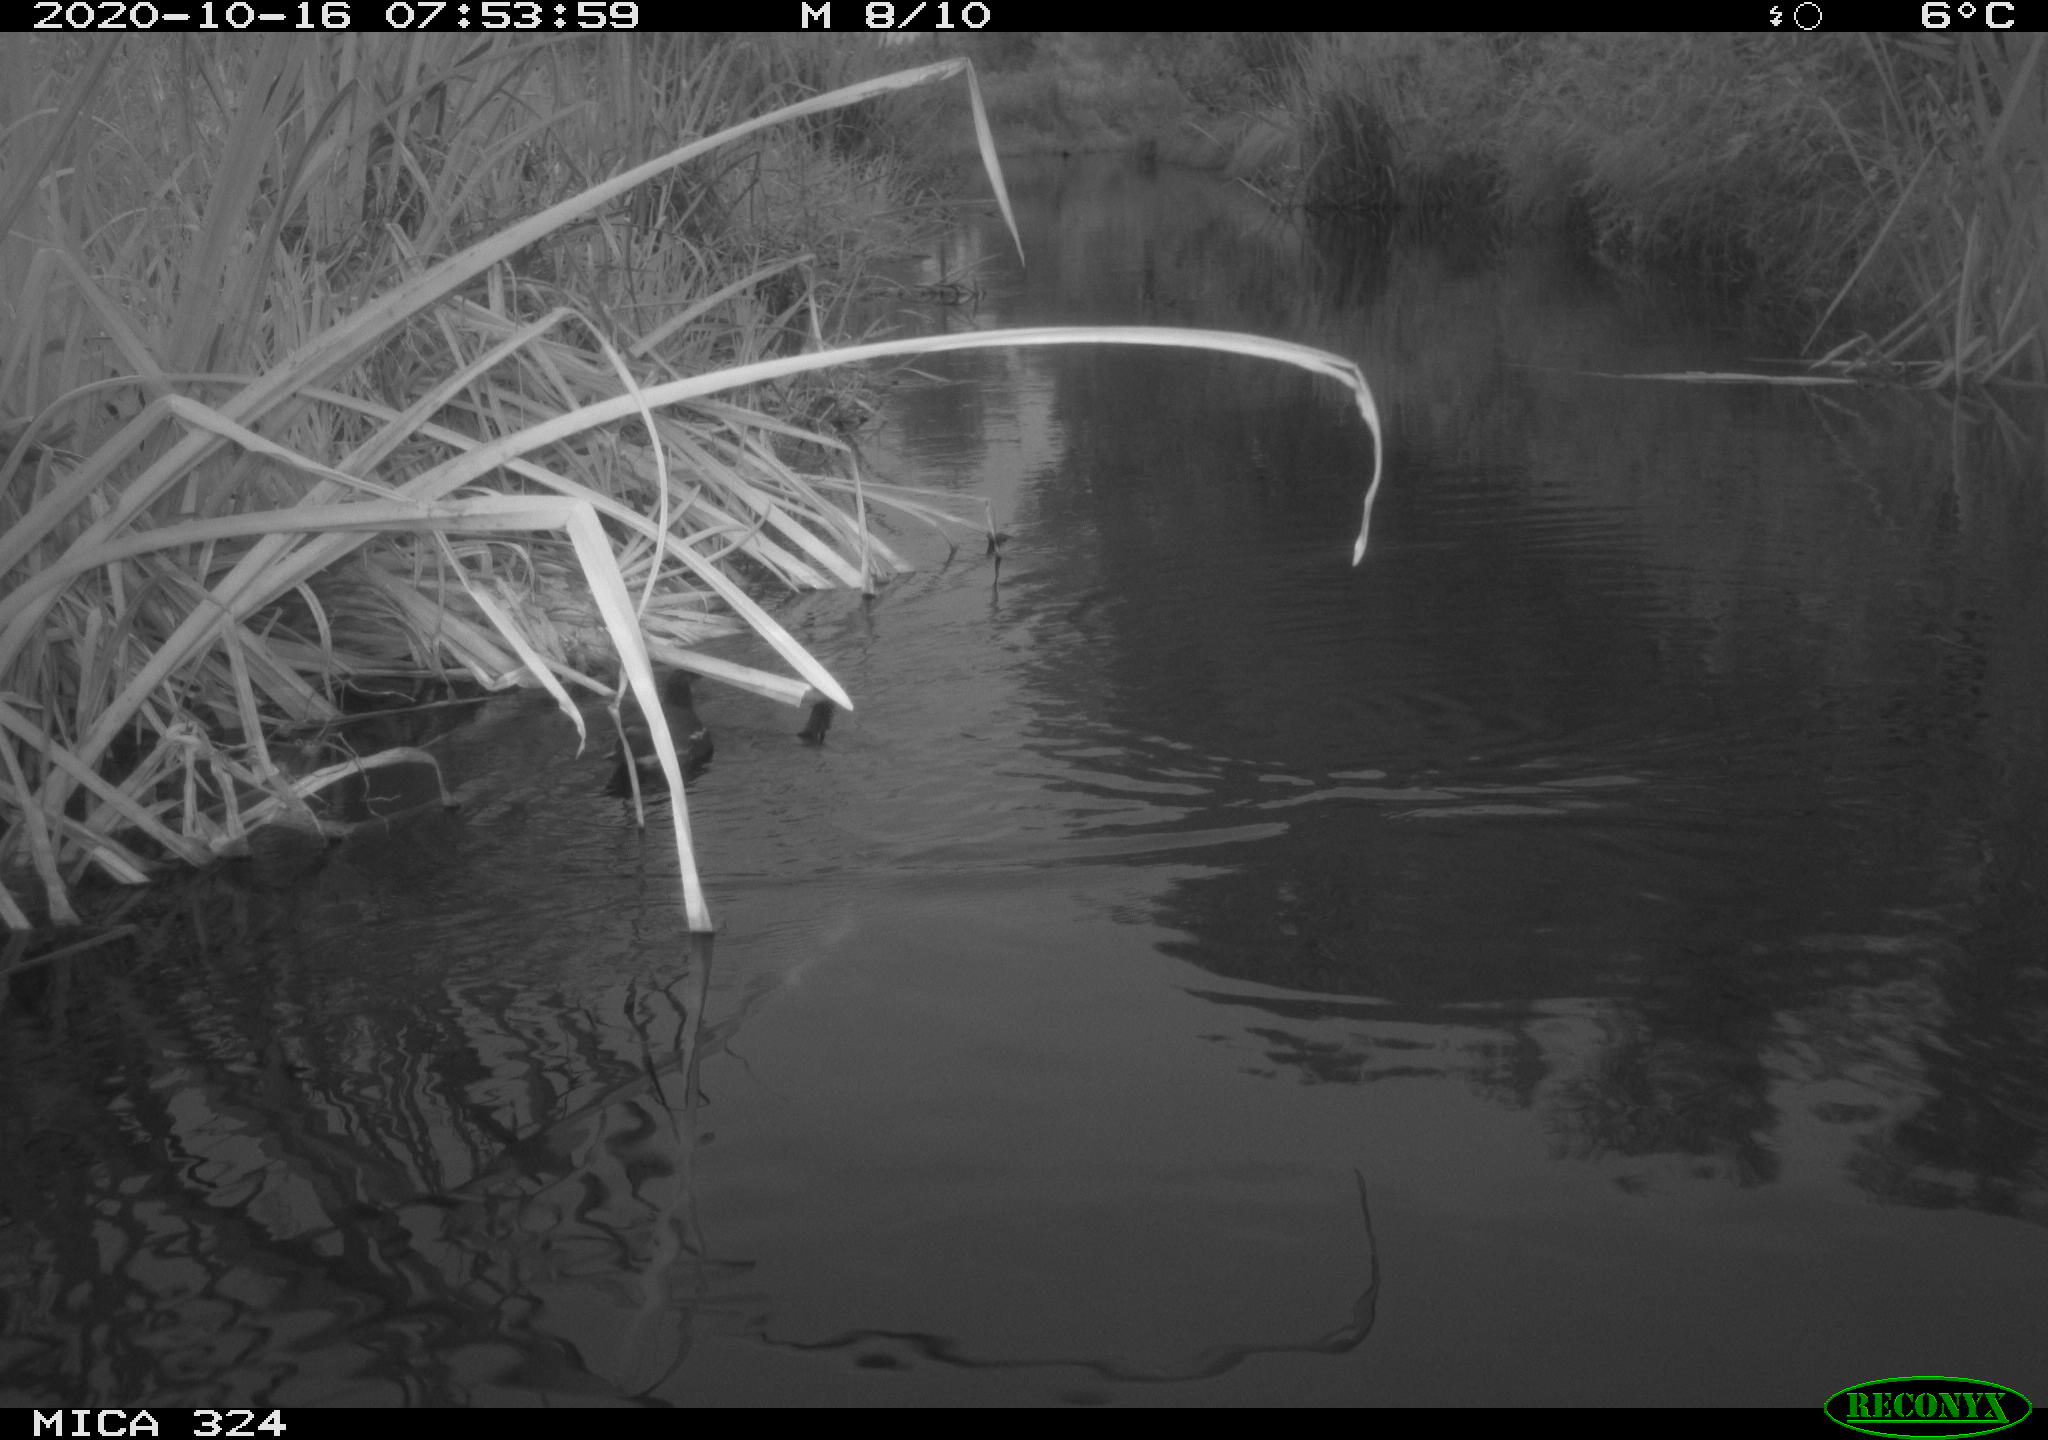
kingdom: Animalia
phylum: Chordata
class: Aves
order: Gruiformes
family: Rallidae
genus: Gallinula
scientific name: Gallinula chloropus
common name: Common moorhen
